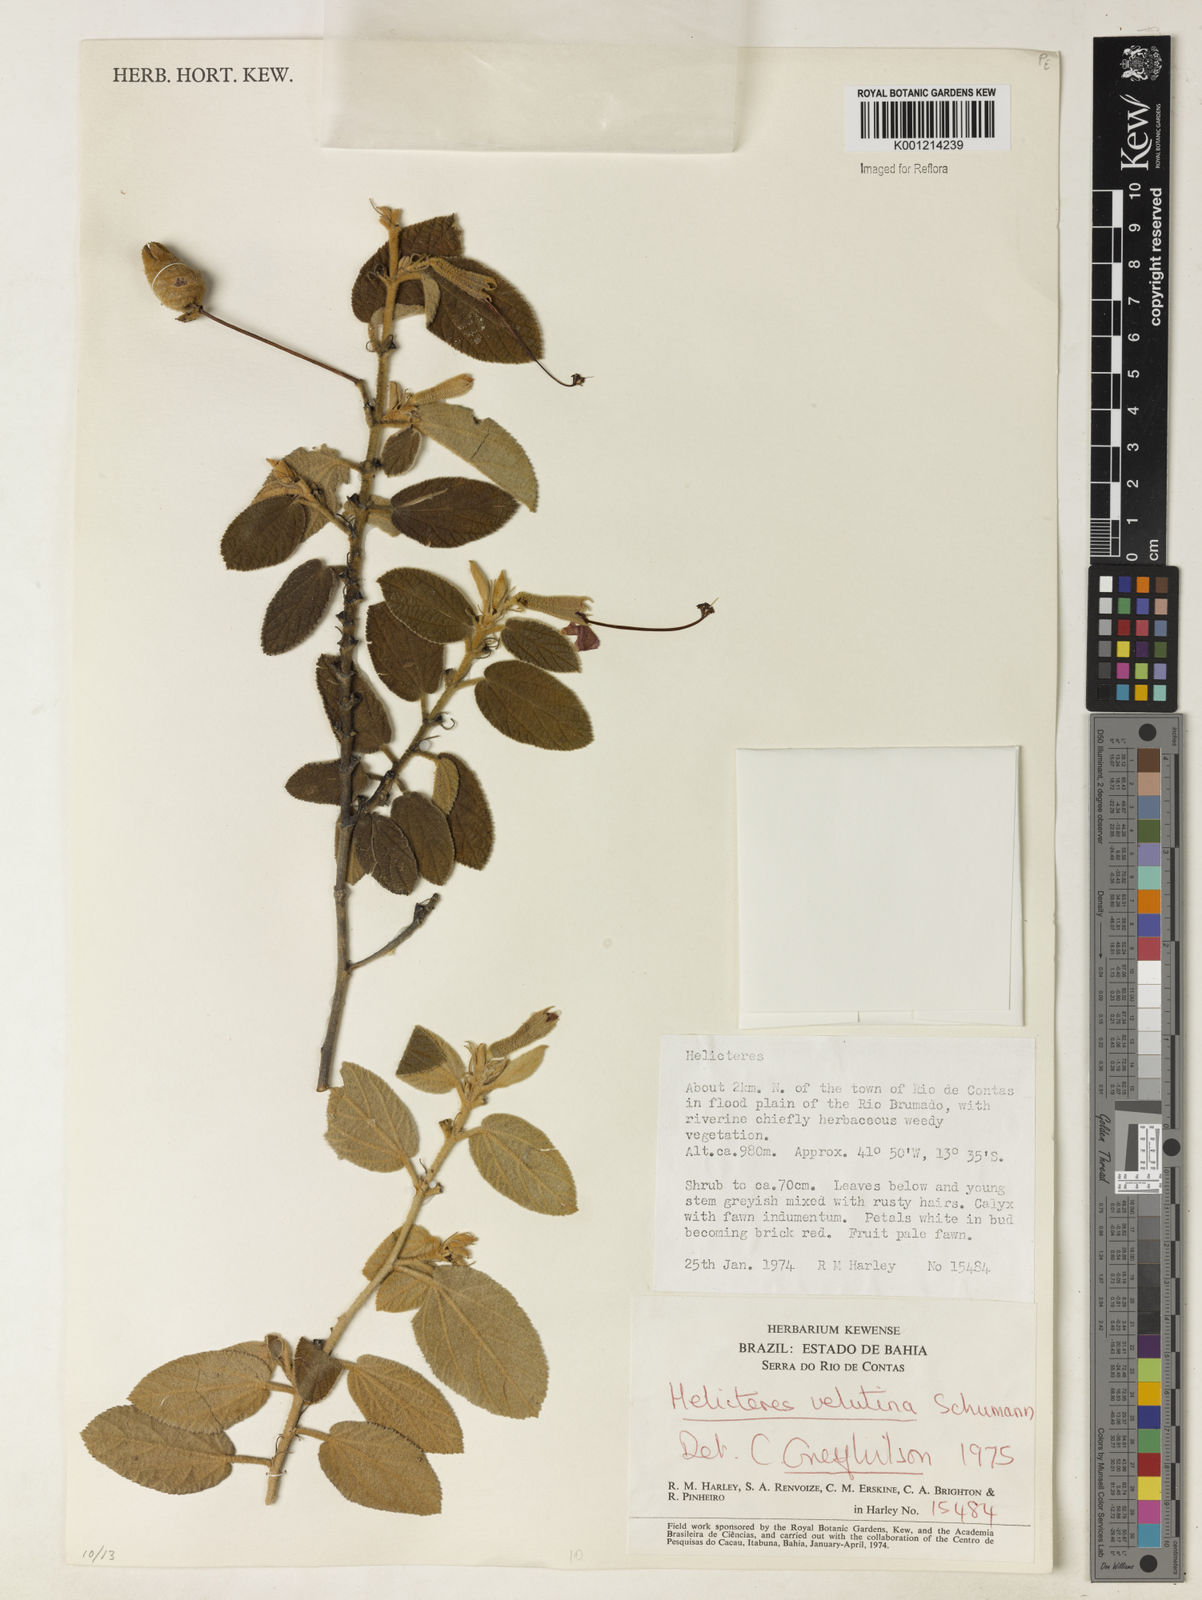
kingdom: Plantae
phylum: Tracheophyta
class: Magnoliopsida
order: Malvales
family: Malvaceae
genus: Helicteres
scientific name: Helicteres velutina
